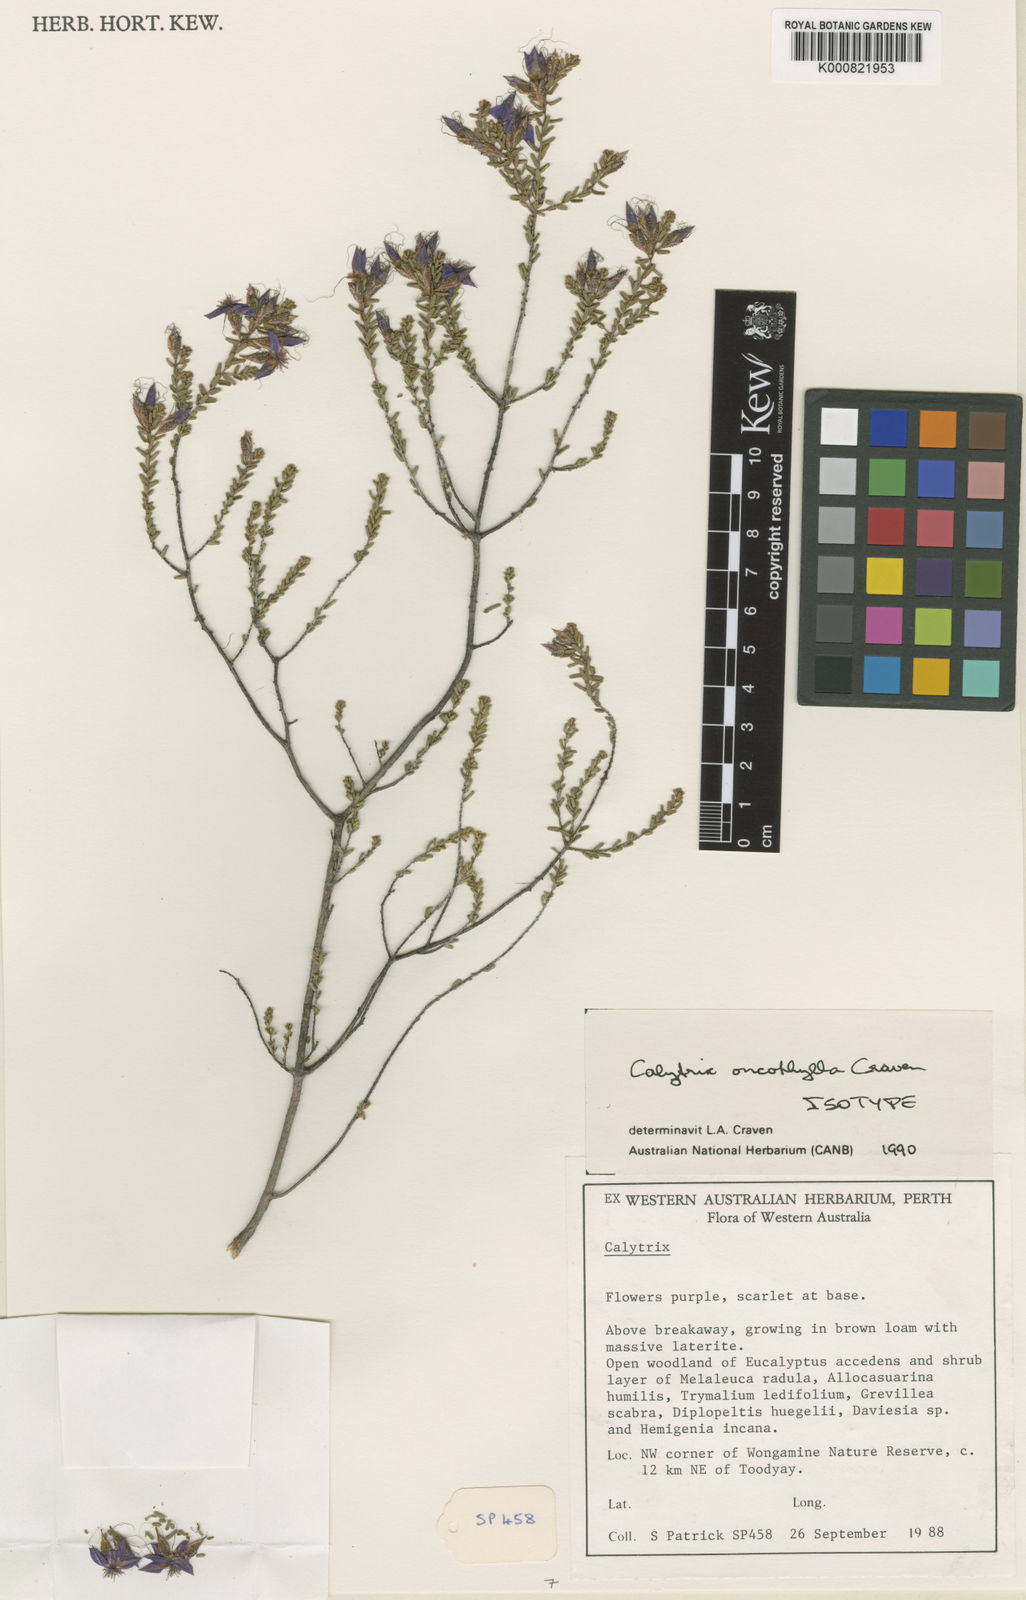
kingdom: Plantae
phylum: Tracheophyta
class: Magnoliopsida
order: Myrtales
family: Myrtaceae
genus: Calytrix
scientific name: Calytrix oncophylla
